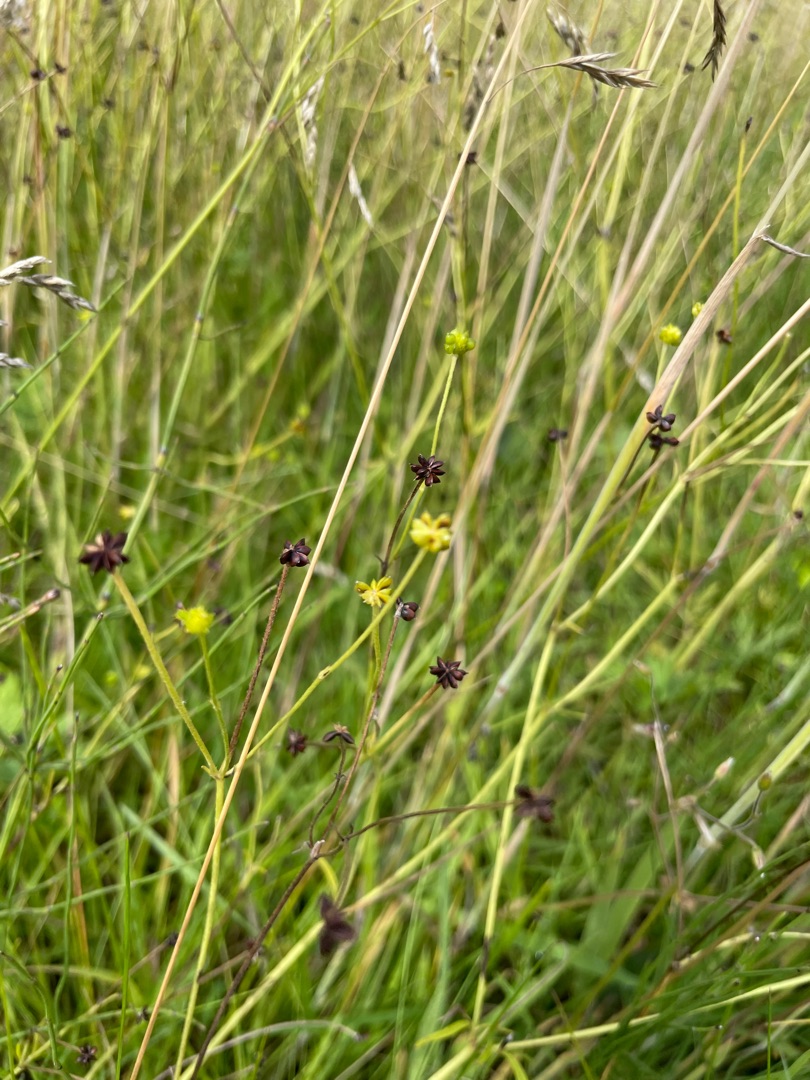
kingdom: Plantae
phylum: Tracheophyta
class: Magnoliopsida
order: Ranunculales
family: Ranunculaceae
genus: Ranunculus
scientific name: Ranunculus acris
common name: Bidende ranunkel
